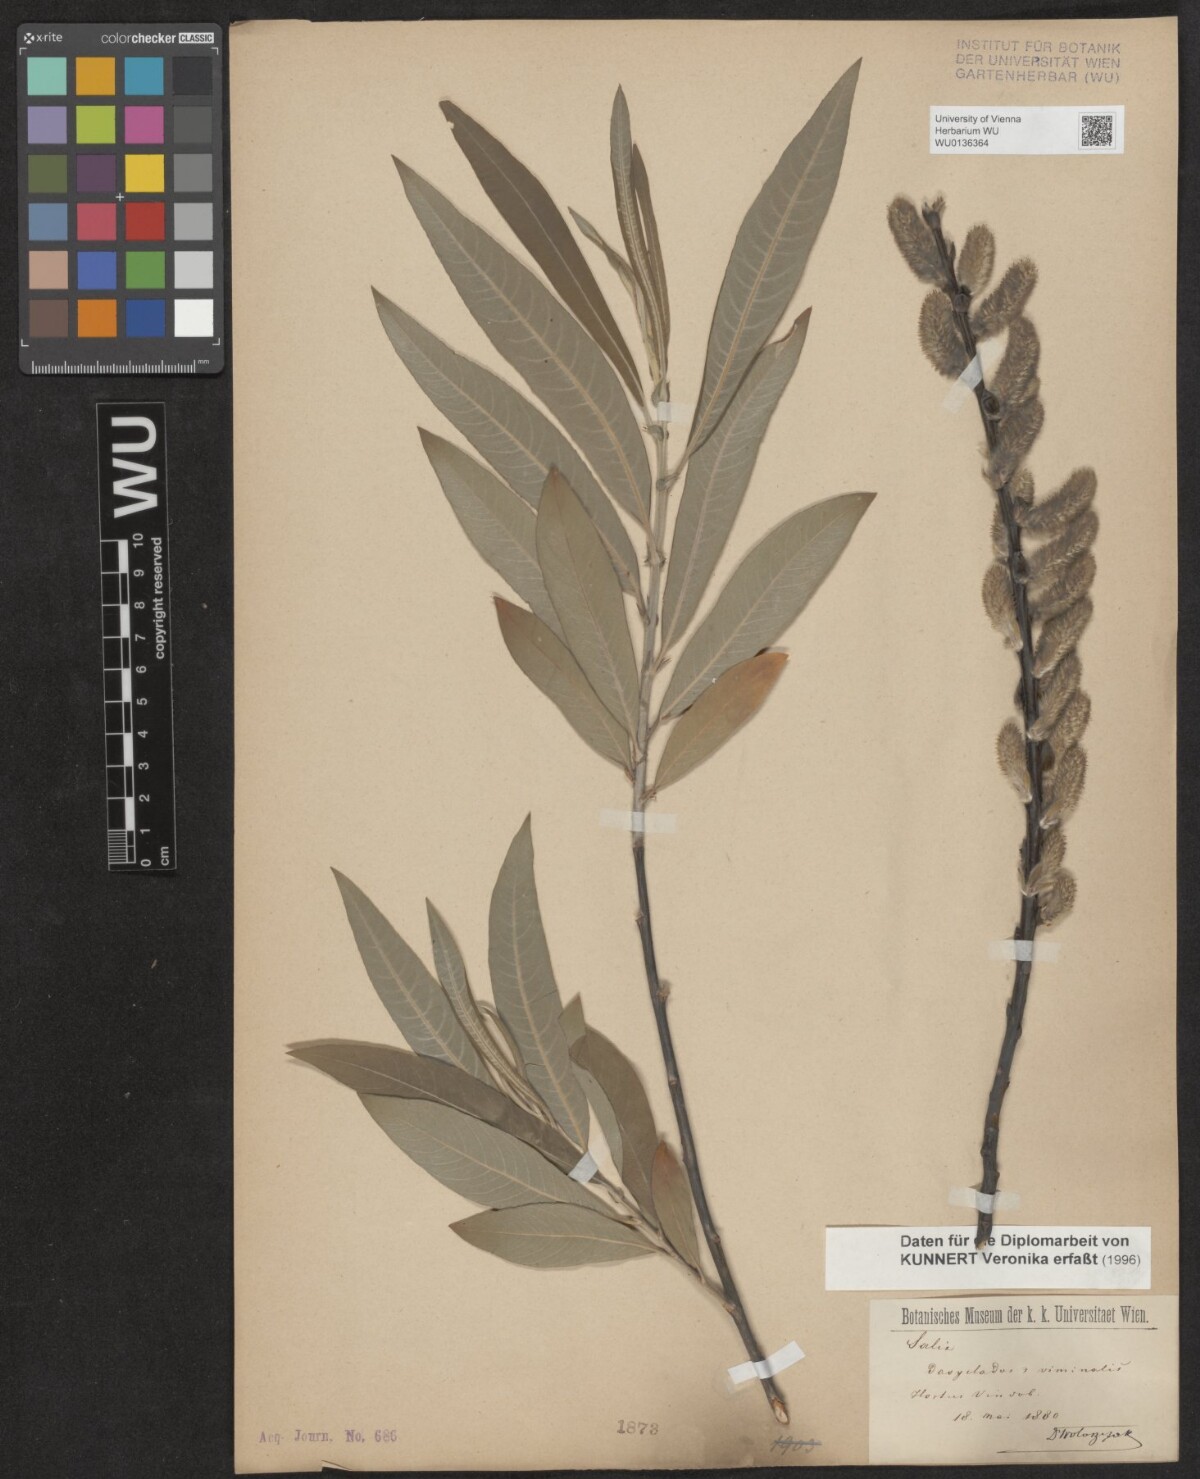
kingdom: Plantae
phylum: Tracheophyta
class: Magnoliopsida
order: Malpighiales
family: Salicaceae
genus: Salix
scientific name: Salix gmelinii
